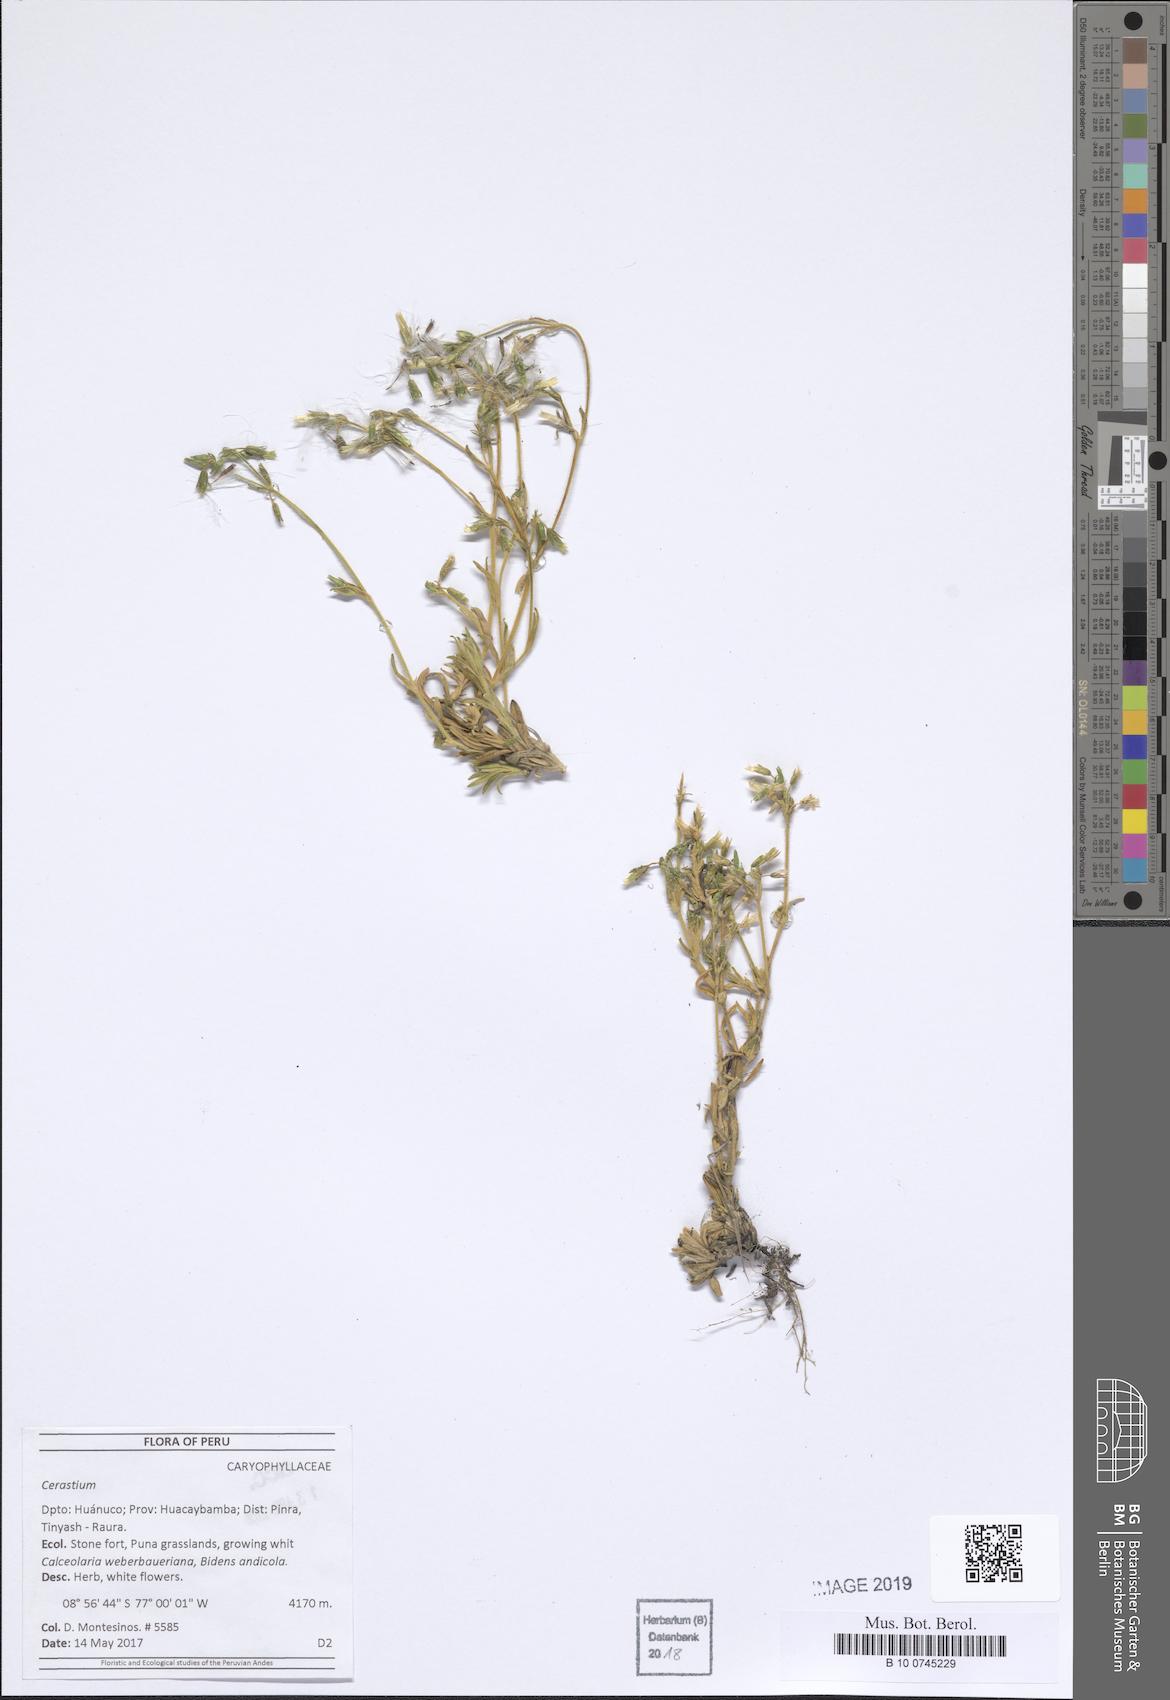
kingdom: Plantae
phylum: Tracheophyta
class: Magnoliopsida
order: Caryophyllales
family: Caryophyllaceae
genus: Cerastium
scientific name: Cerastium
